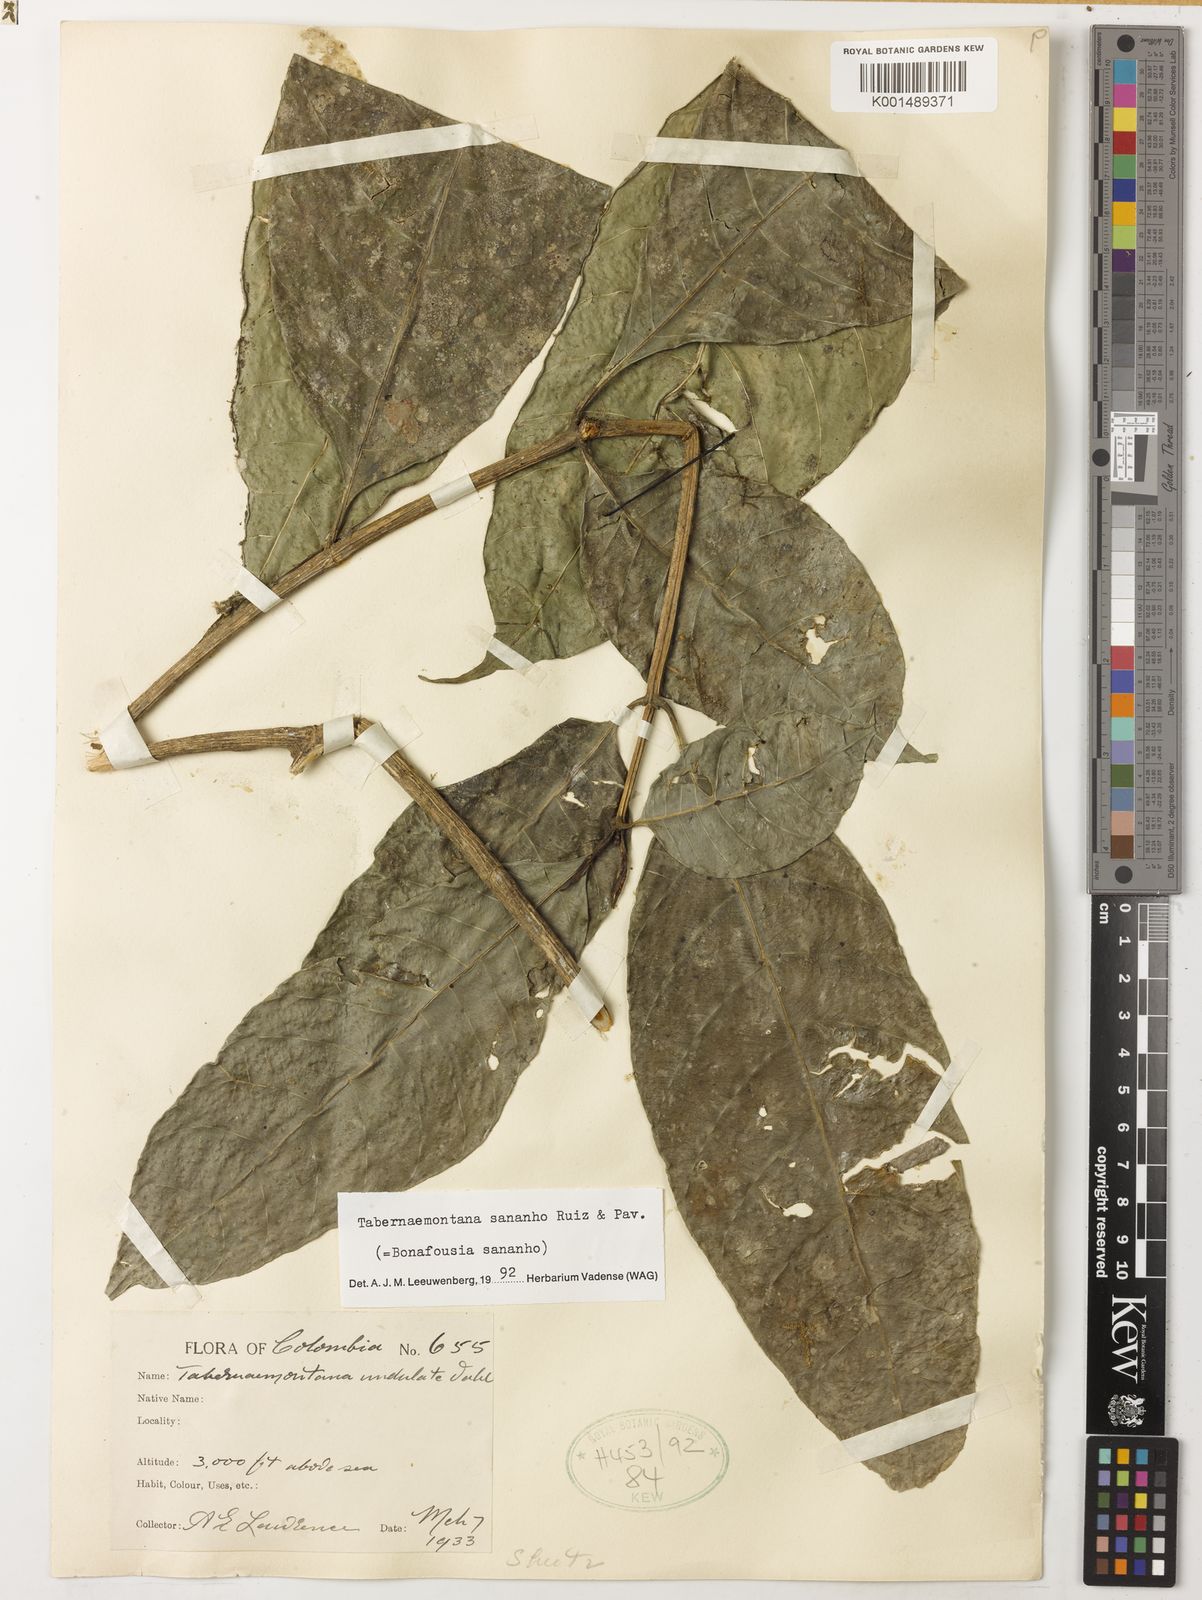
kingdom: Plantae
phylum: Tracheophyta
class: Magnoliopsida
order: Gentianales
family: Apocynaceae
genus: Tabernaemontana
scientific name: Tabernaemontana sananho
